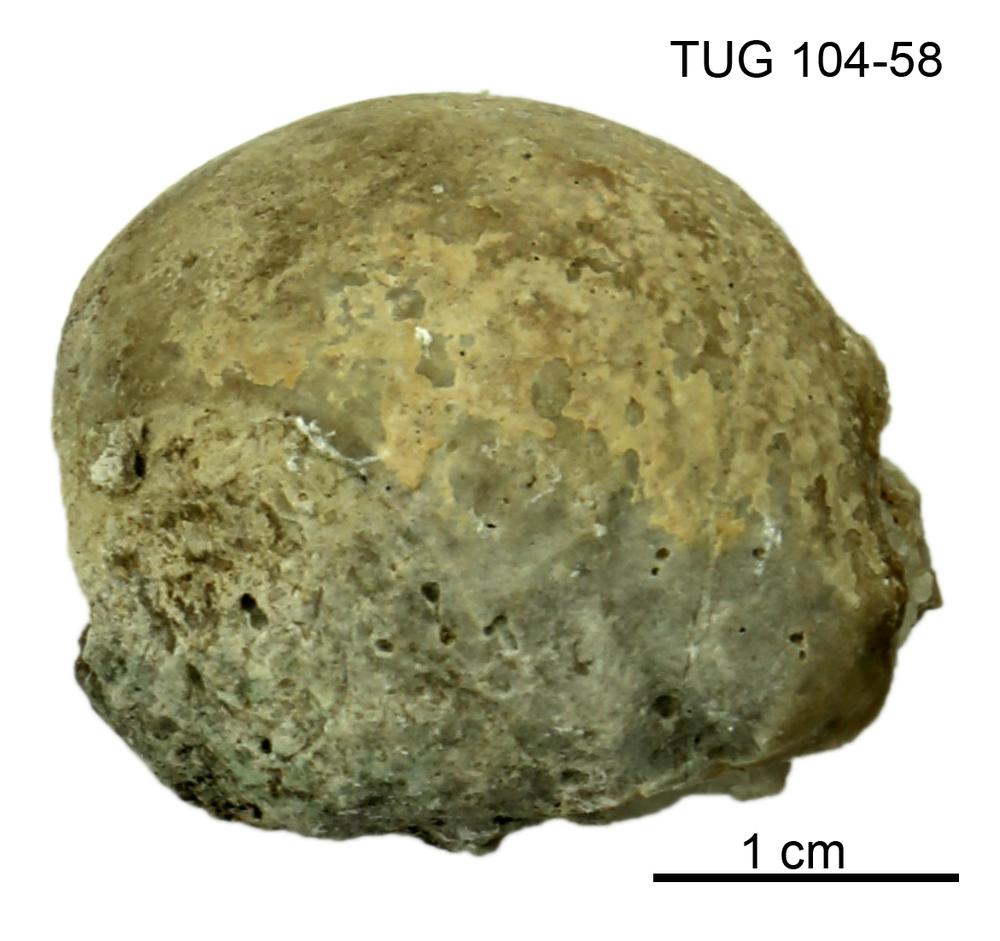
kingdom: Animalia
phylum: Arthropoda
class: Trilobita
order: Corynexochida
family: Illaenidae
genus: Stenopareia
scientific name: Stenopareia linnarssoni
